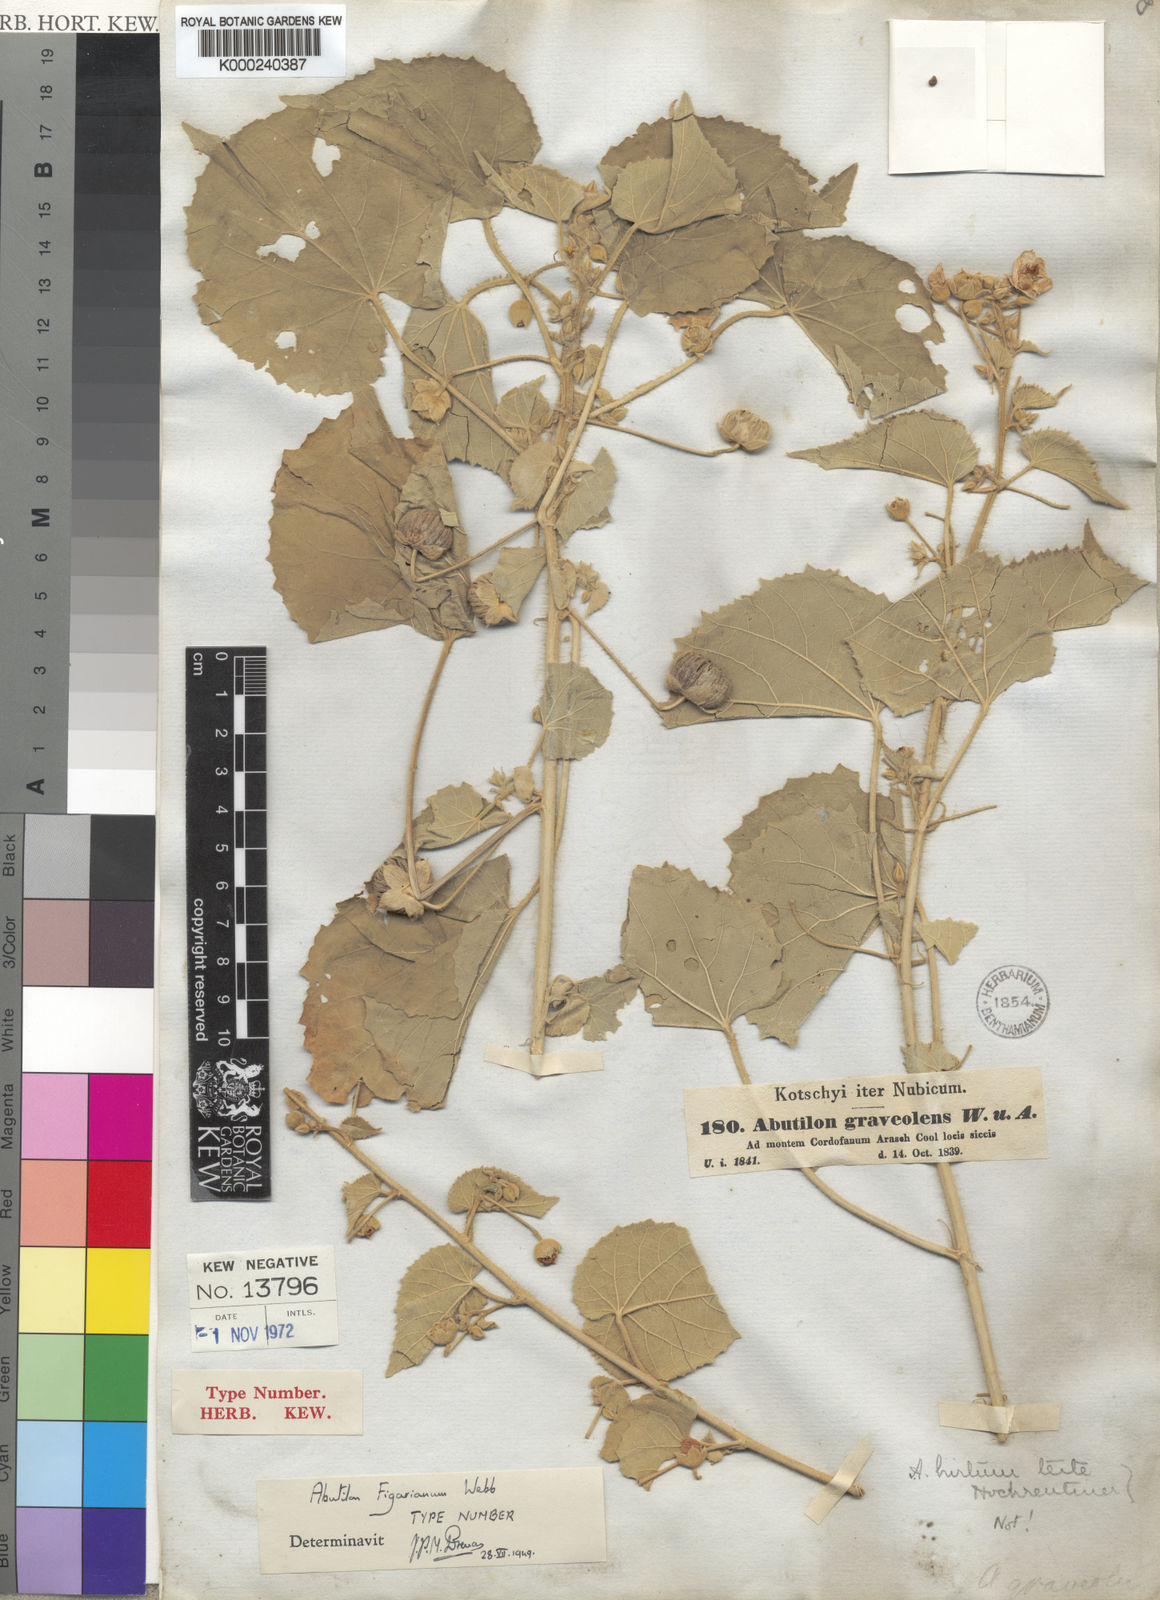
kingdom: Plantae
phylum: Tracheophyta
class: Magnoliopsida
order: Malvales
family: Malvaceae
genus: Abutilon
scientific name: Abutilon pannosum
